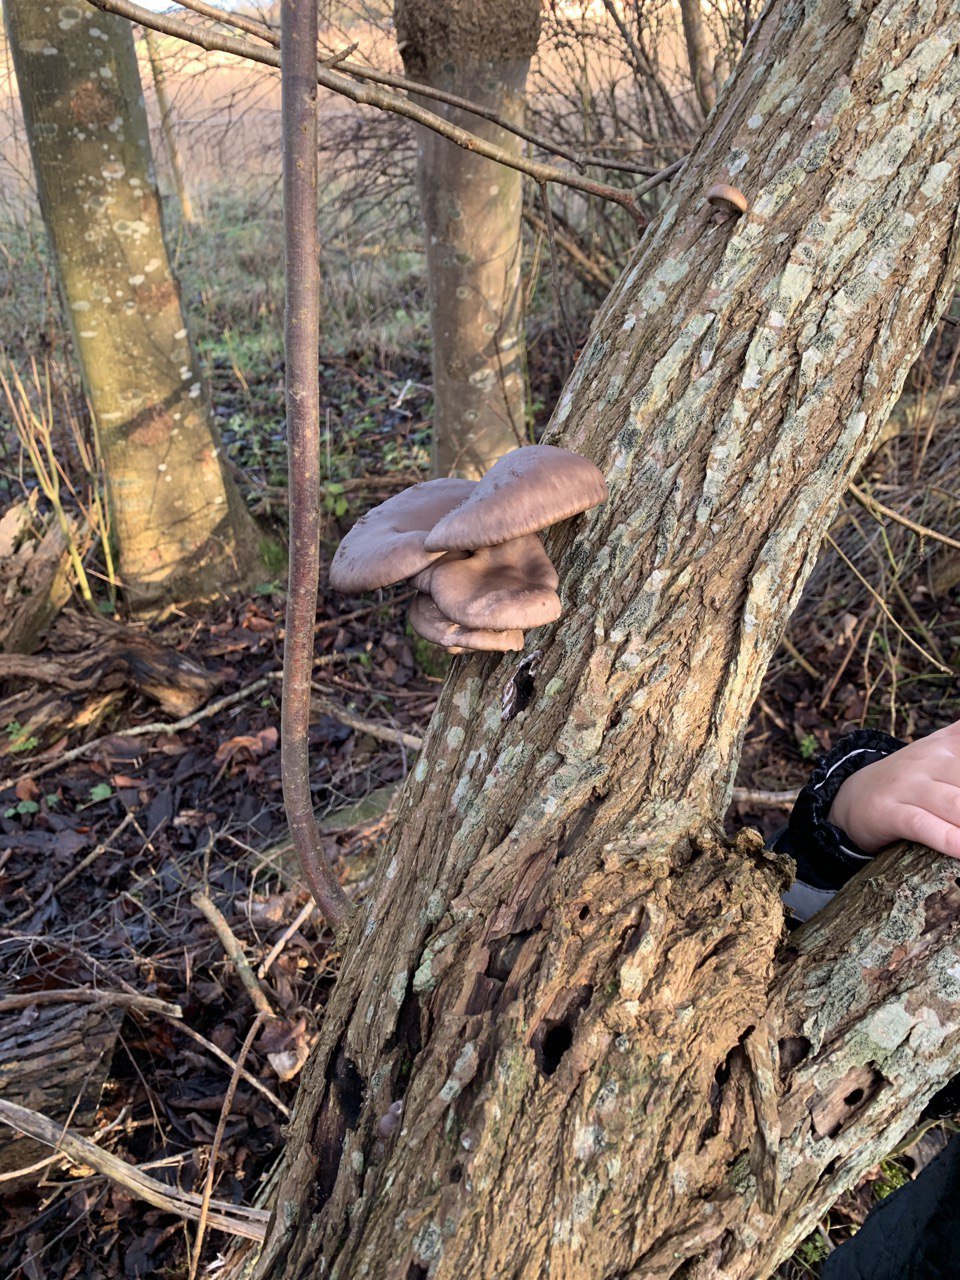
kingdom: Fungi
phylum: Basidiomycota
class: Agaricomycetes
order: Agaricales
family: Pleurotaceae
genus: Pleurotus
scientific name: Pleurotus ostreatus
